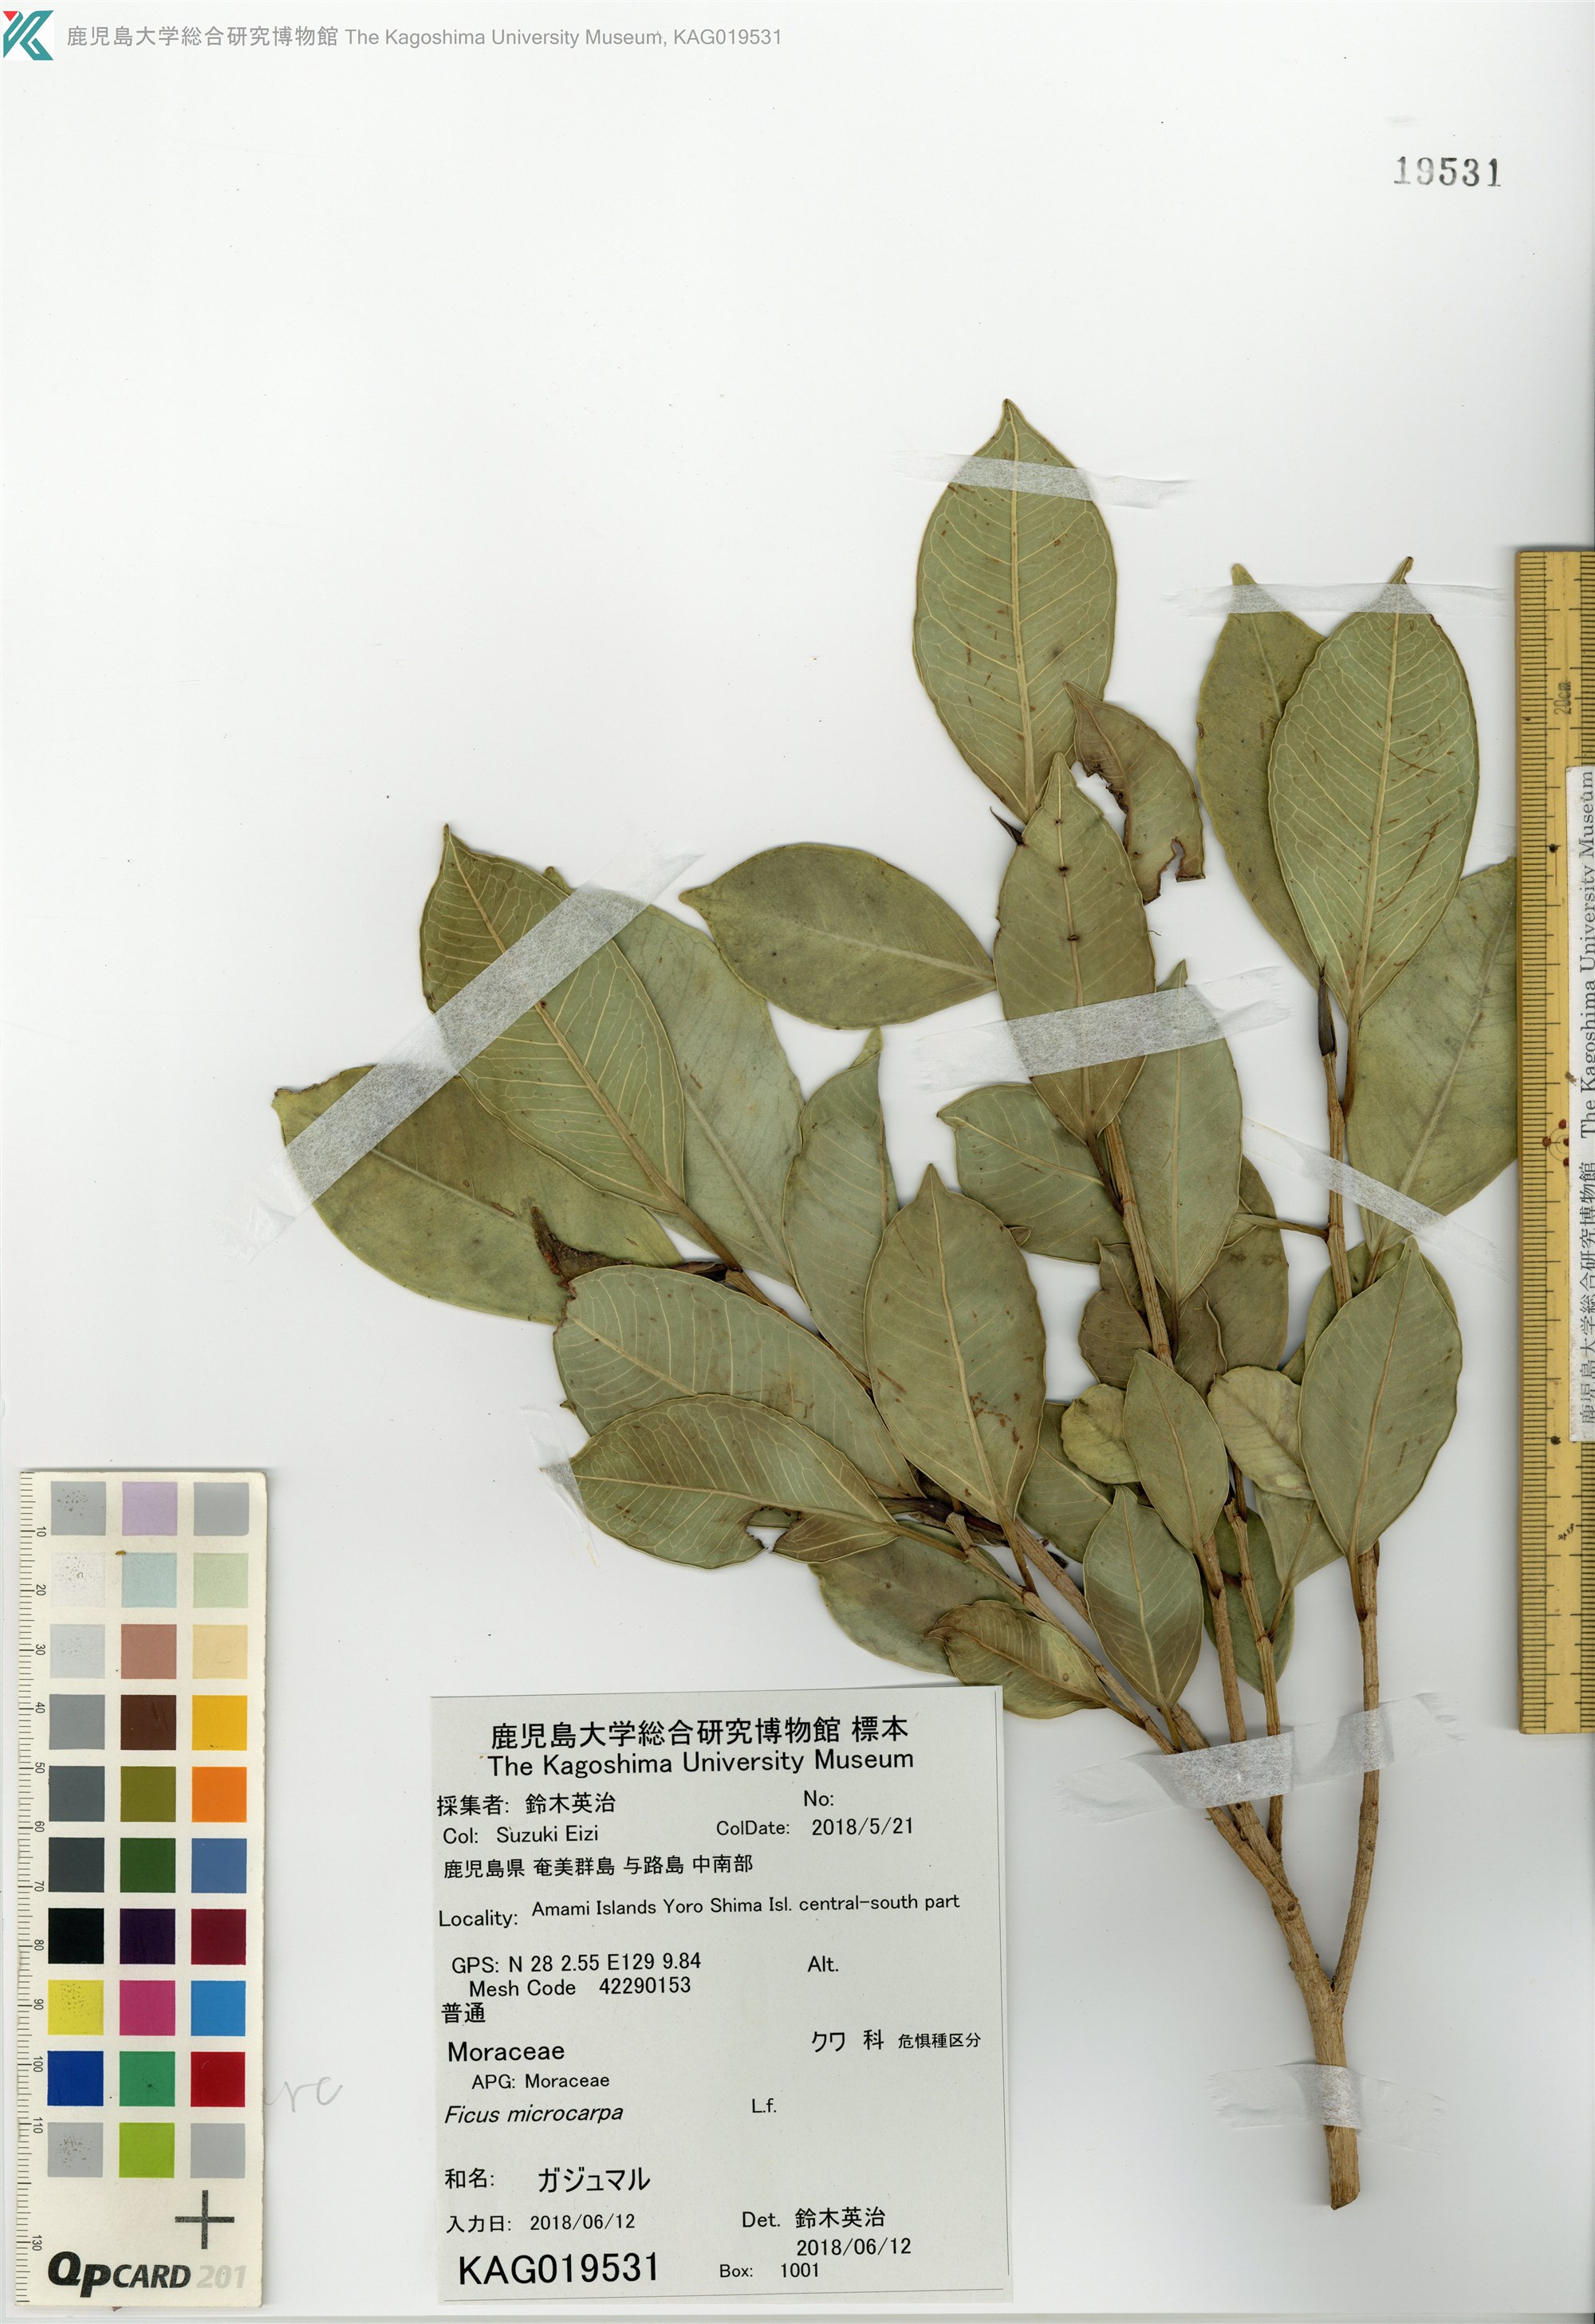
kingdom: Plantae
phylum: Tracheophyta
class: Magnoliopsida
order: Rosales
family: Moraceae
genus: Ficus
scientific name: Ficus microcarpa
